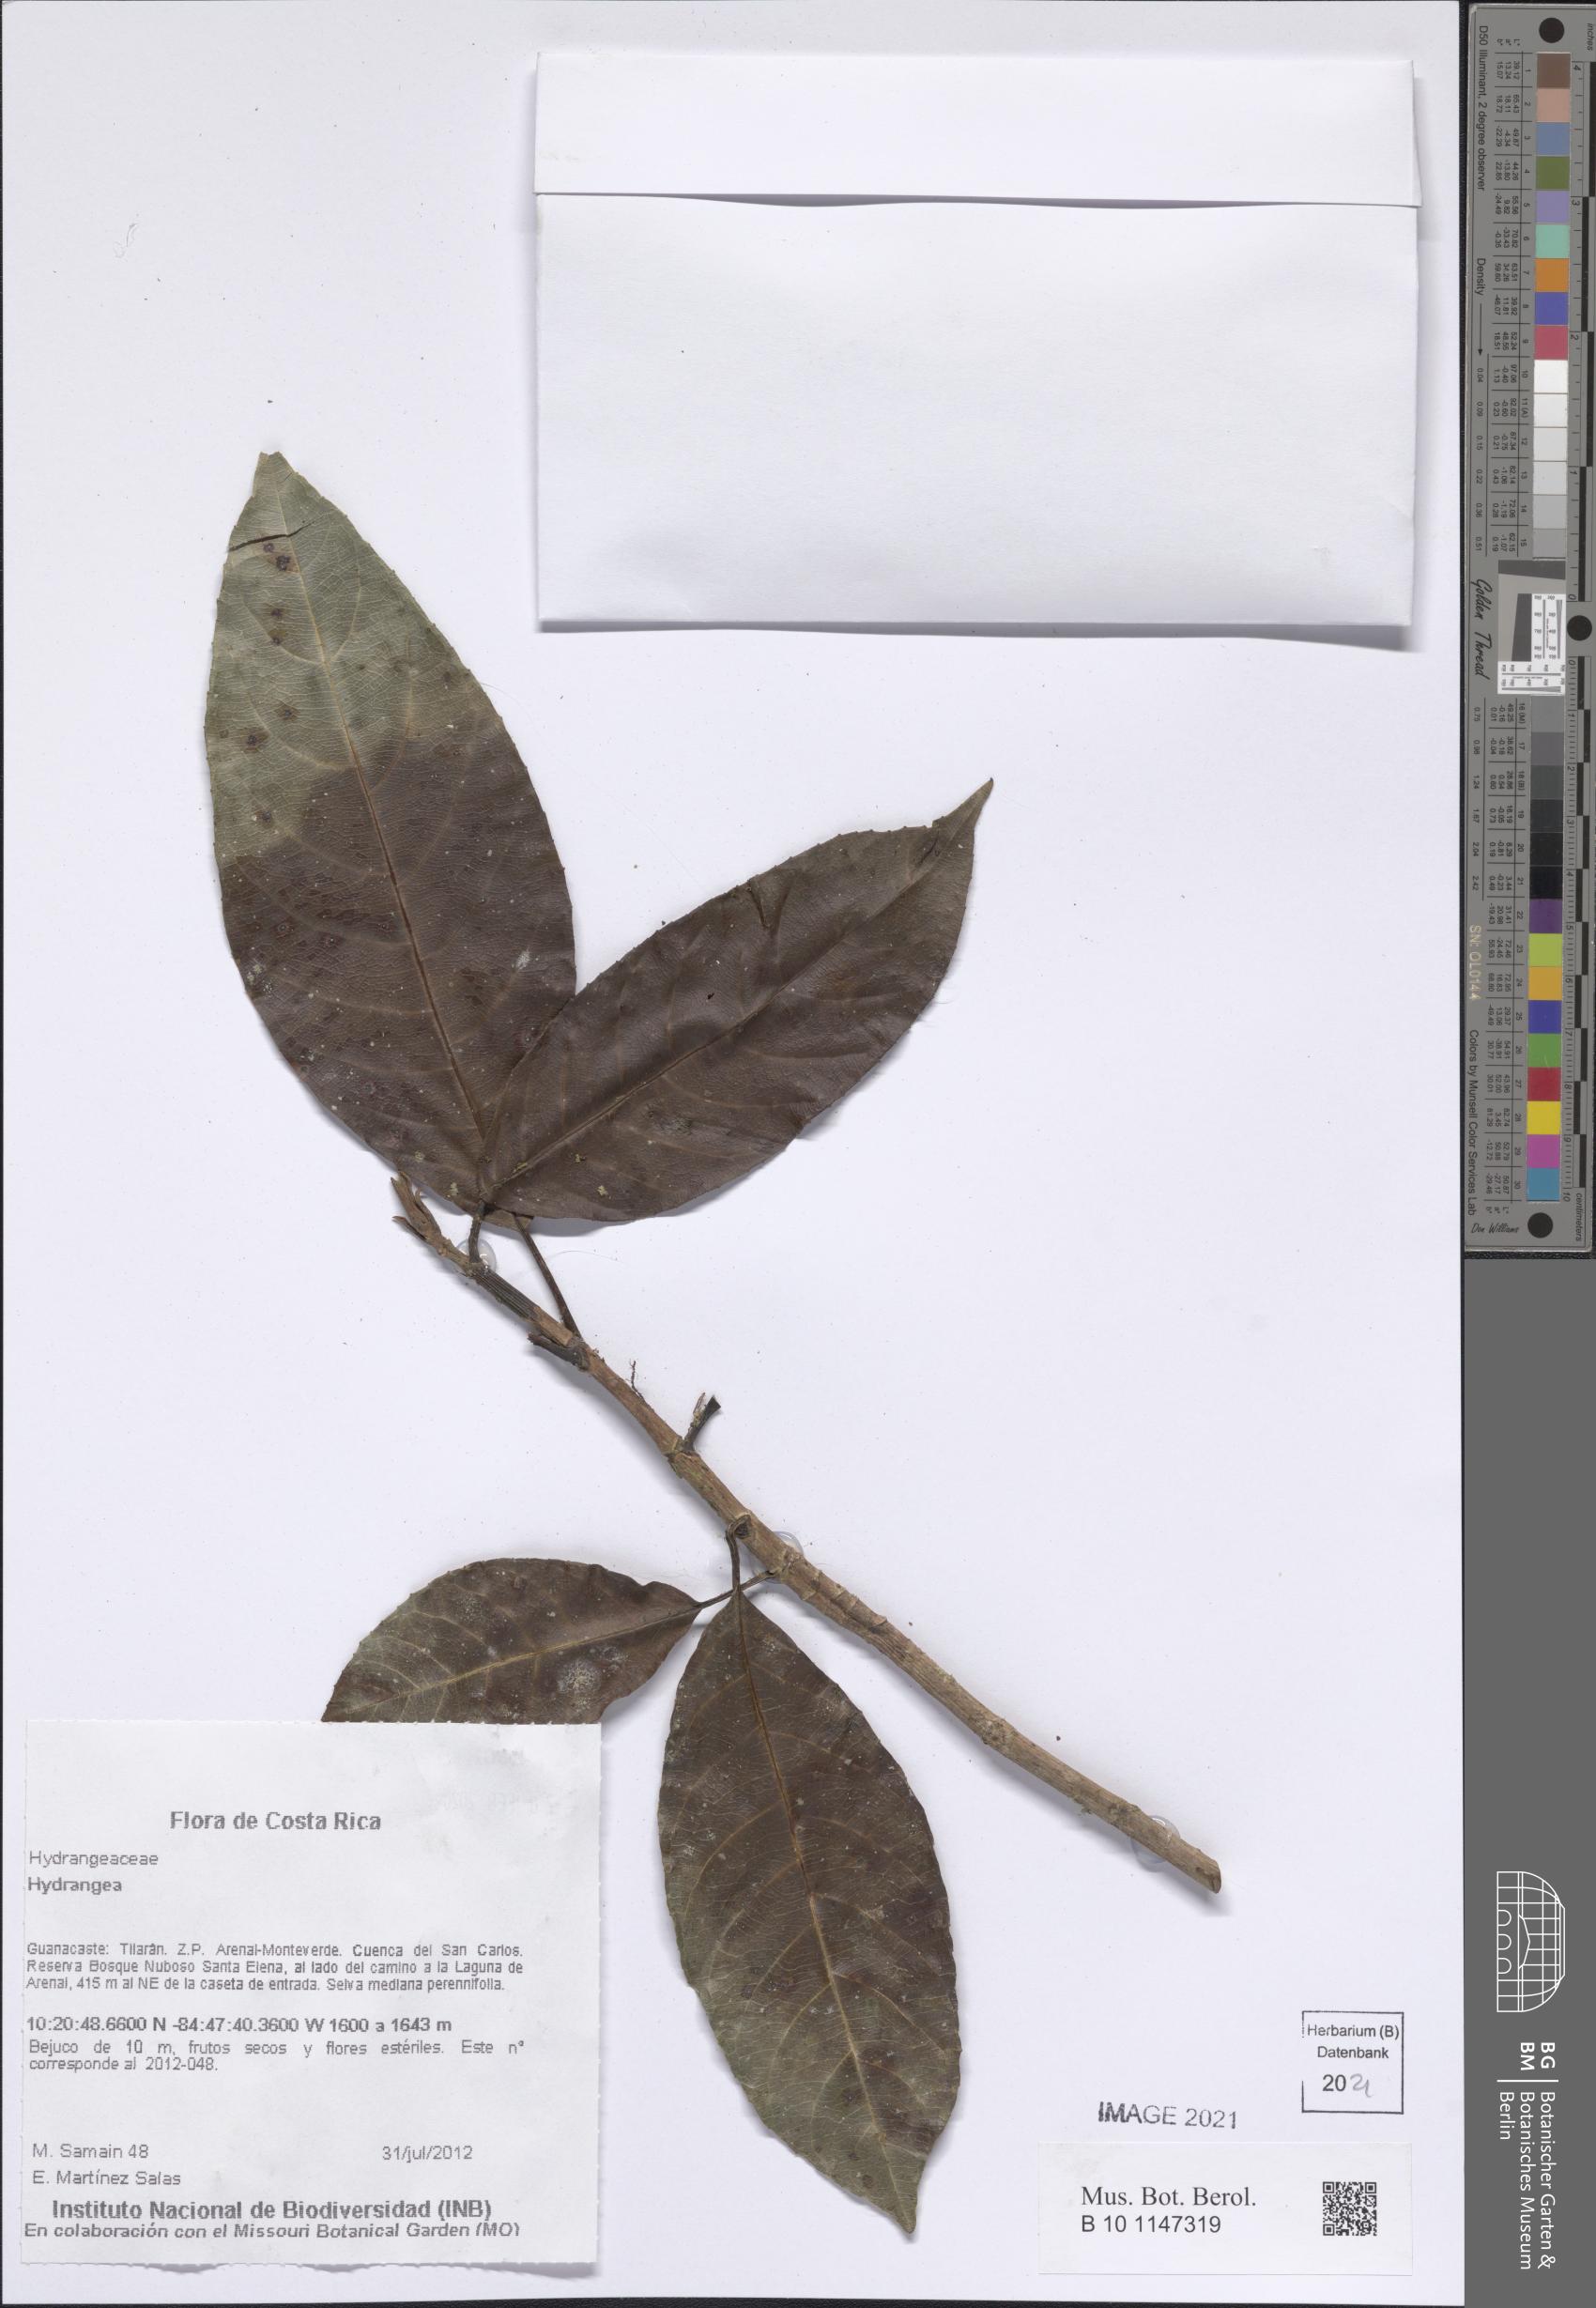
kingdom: Plantae
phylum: Tracheophyta
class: Magnoliopsida
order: Cornales
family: Hydrangeaceae
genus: Hydrangea
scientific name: Hydrangea
